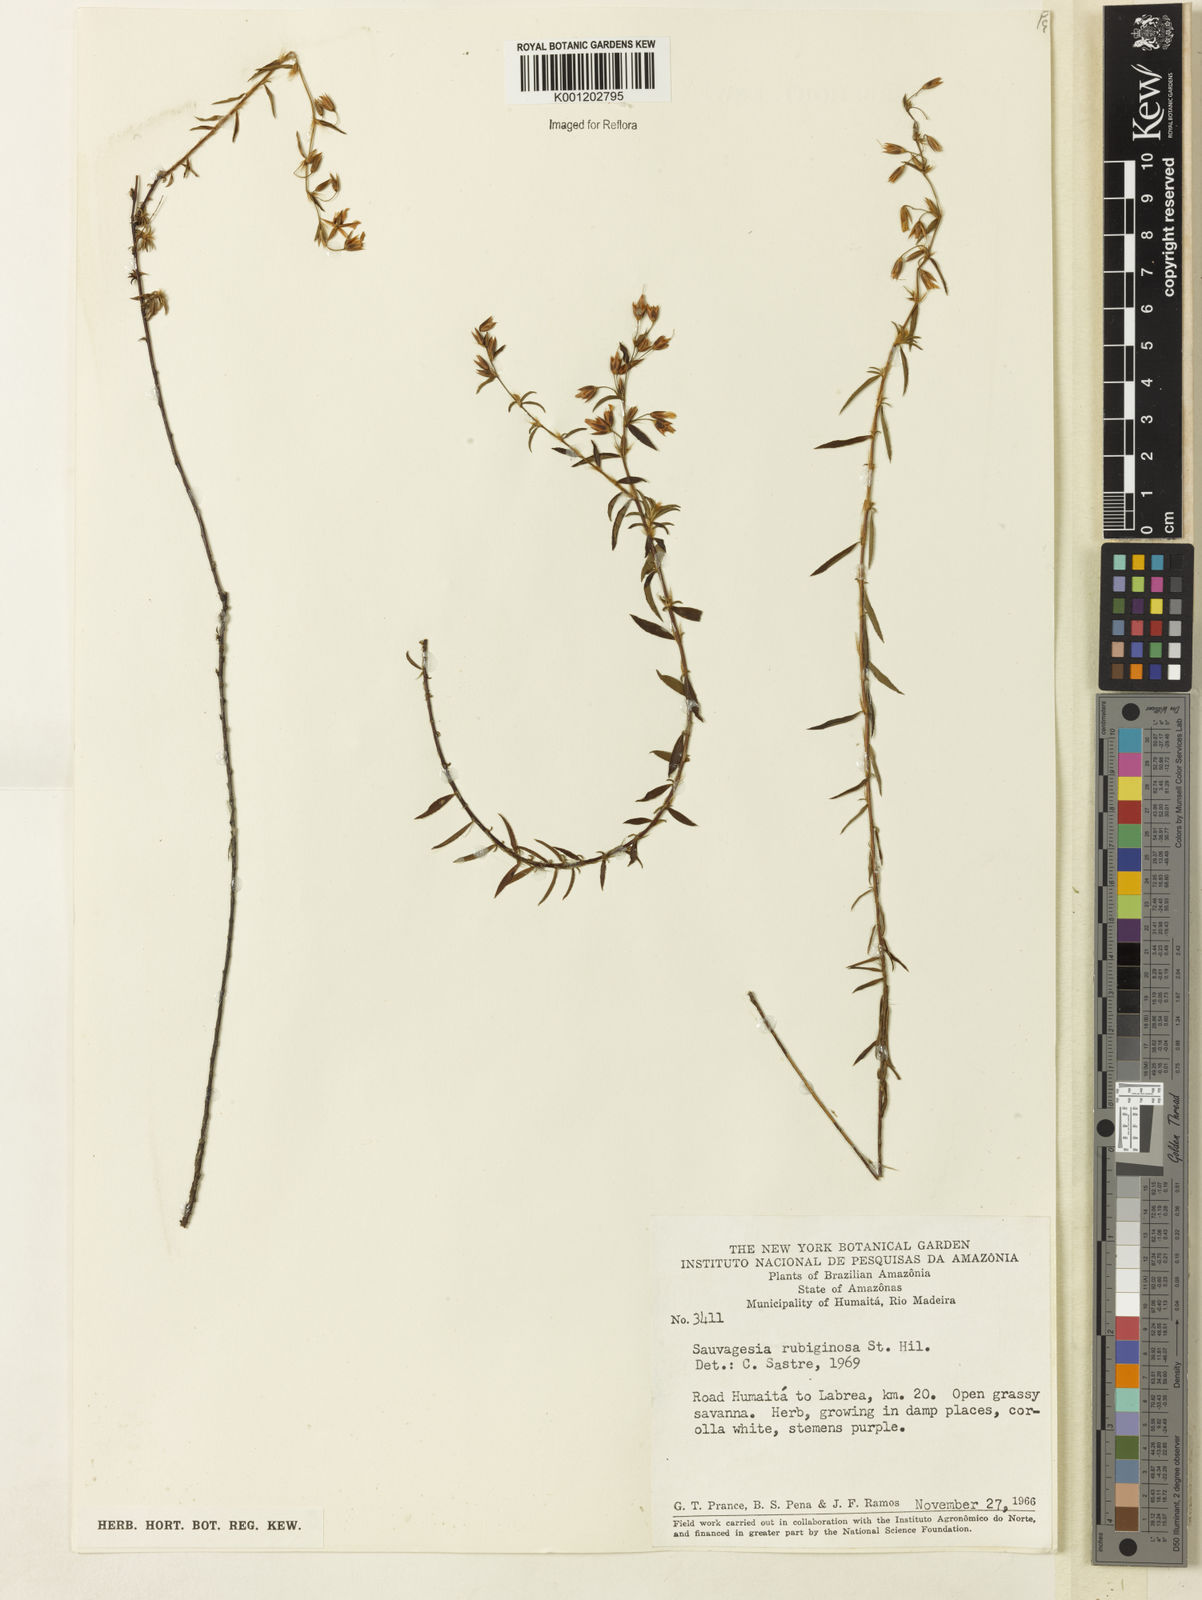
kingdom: Plantae
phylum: Tracheophyta
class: Magnoliopsida
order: Malpighiales
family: Ochnaceae
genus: Sauvagesia
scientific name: Sauvagesia rubiginosa
